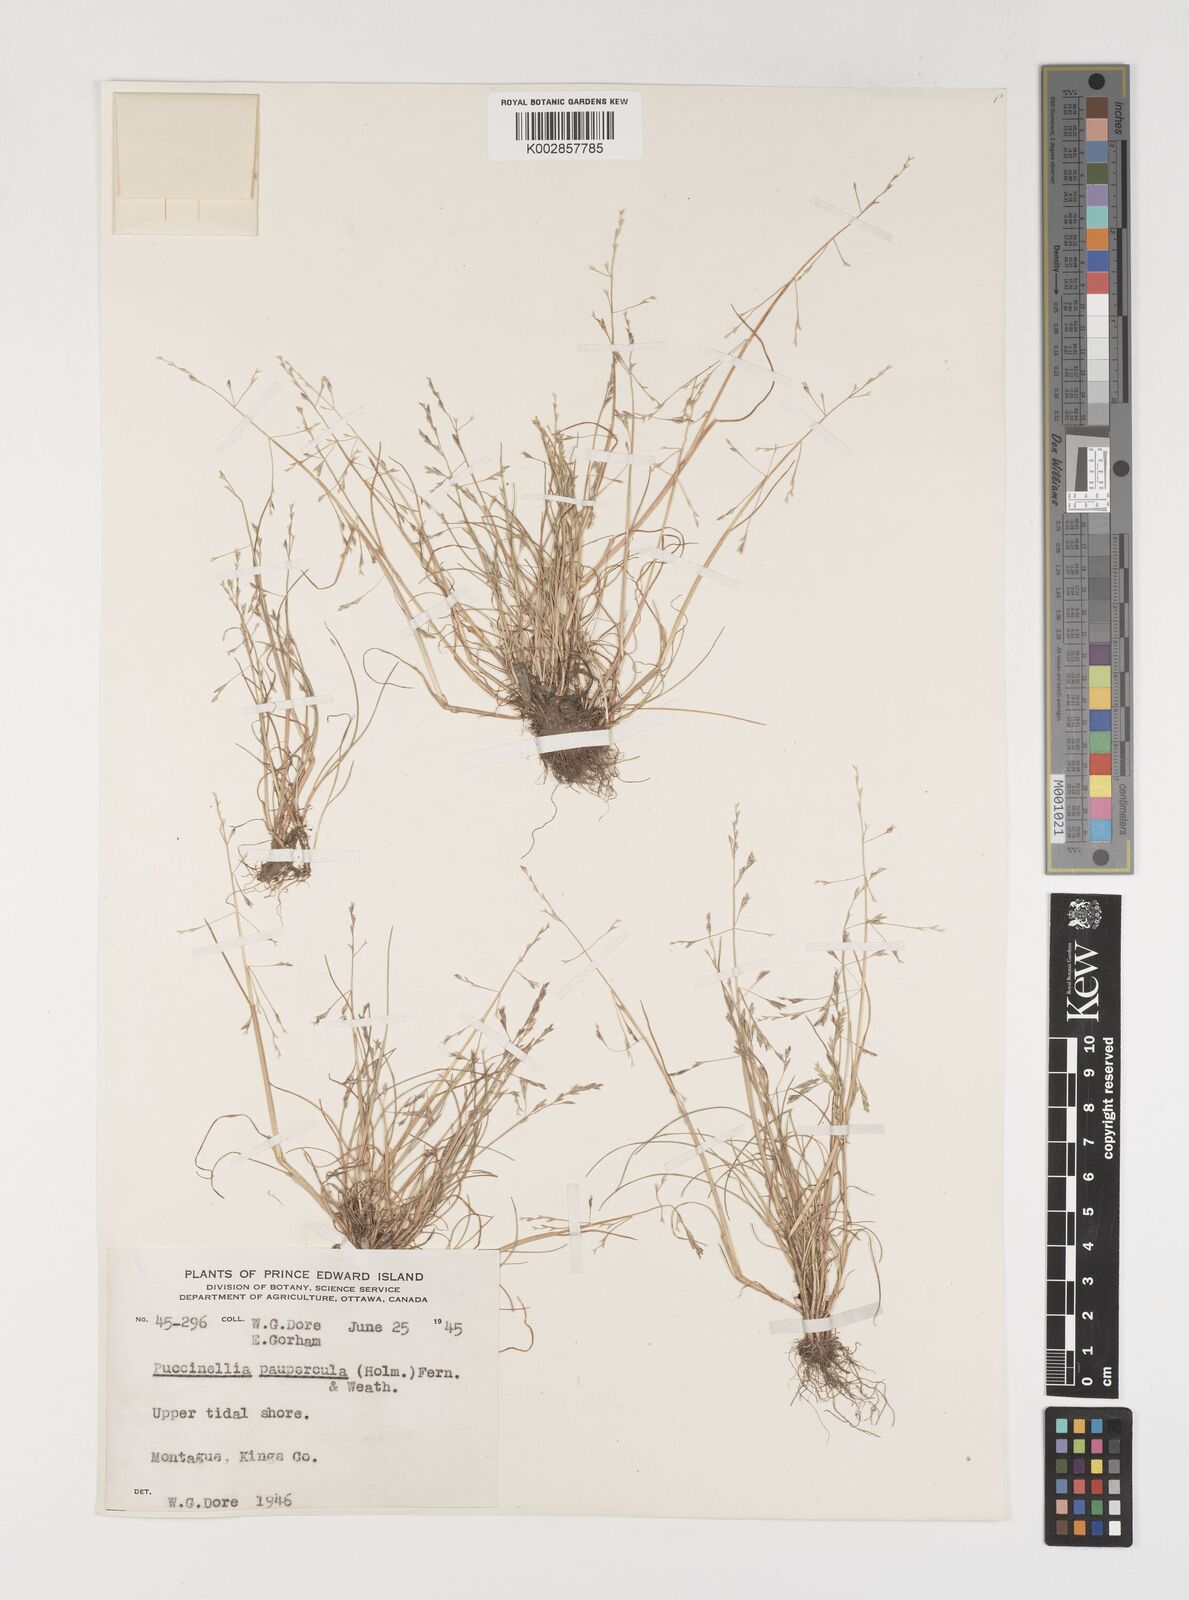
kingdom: Plantae
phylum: Tracheophyta
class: Liliopsida
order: Poales
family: Poaceae
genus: Puccinellia
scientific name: Puccinellia pumila
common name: Dwarf alkaligrass
